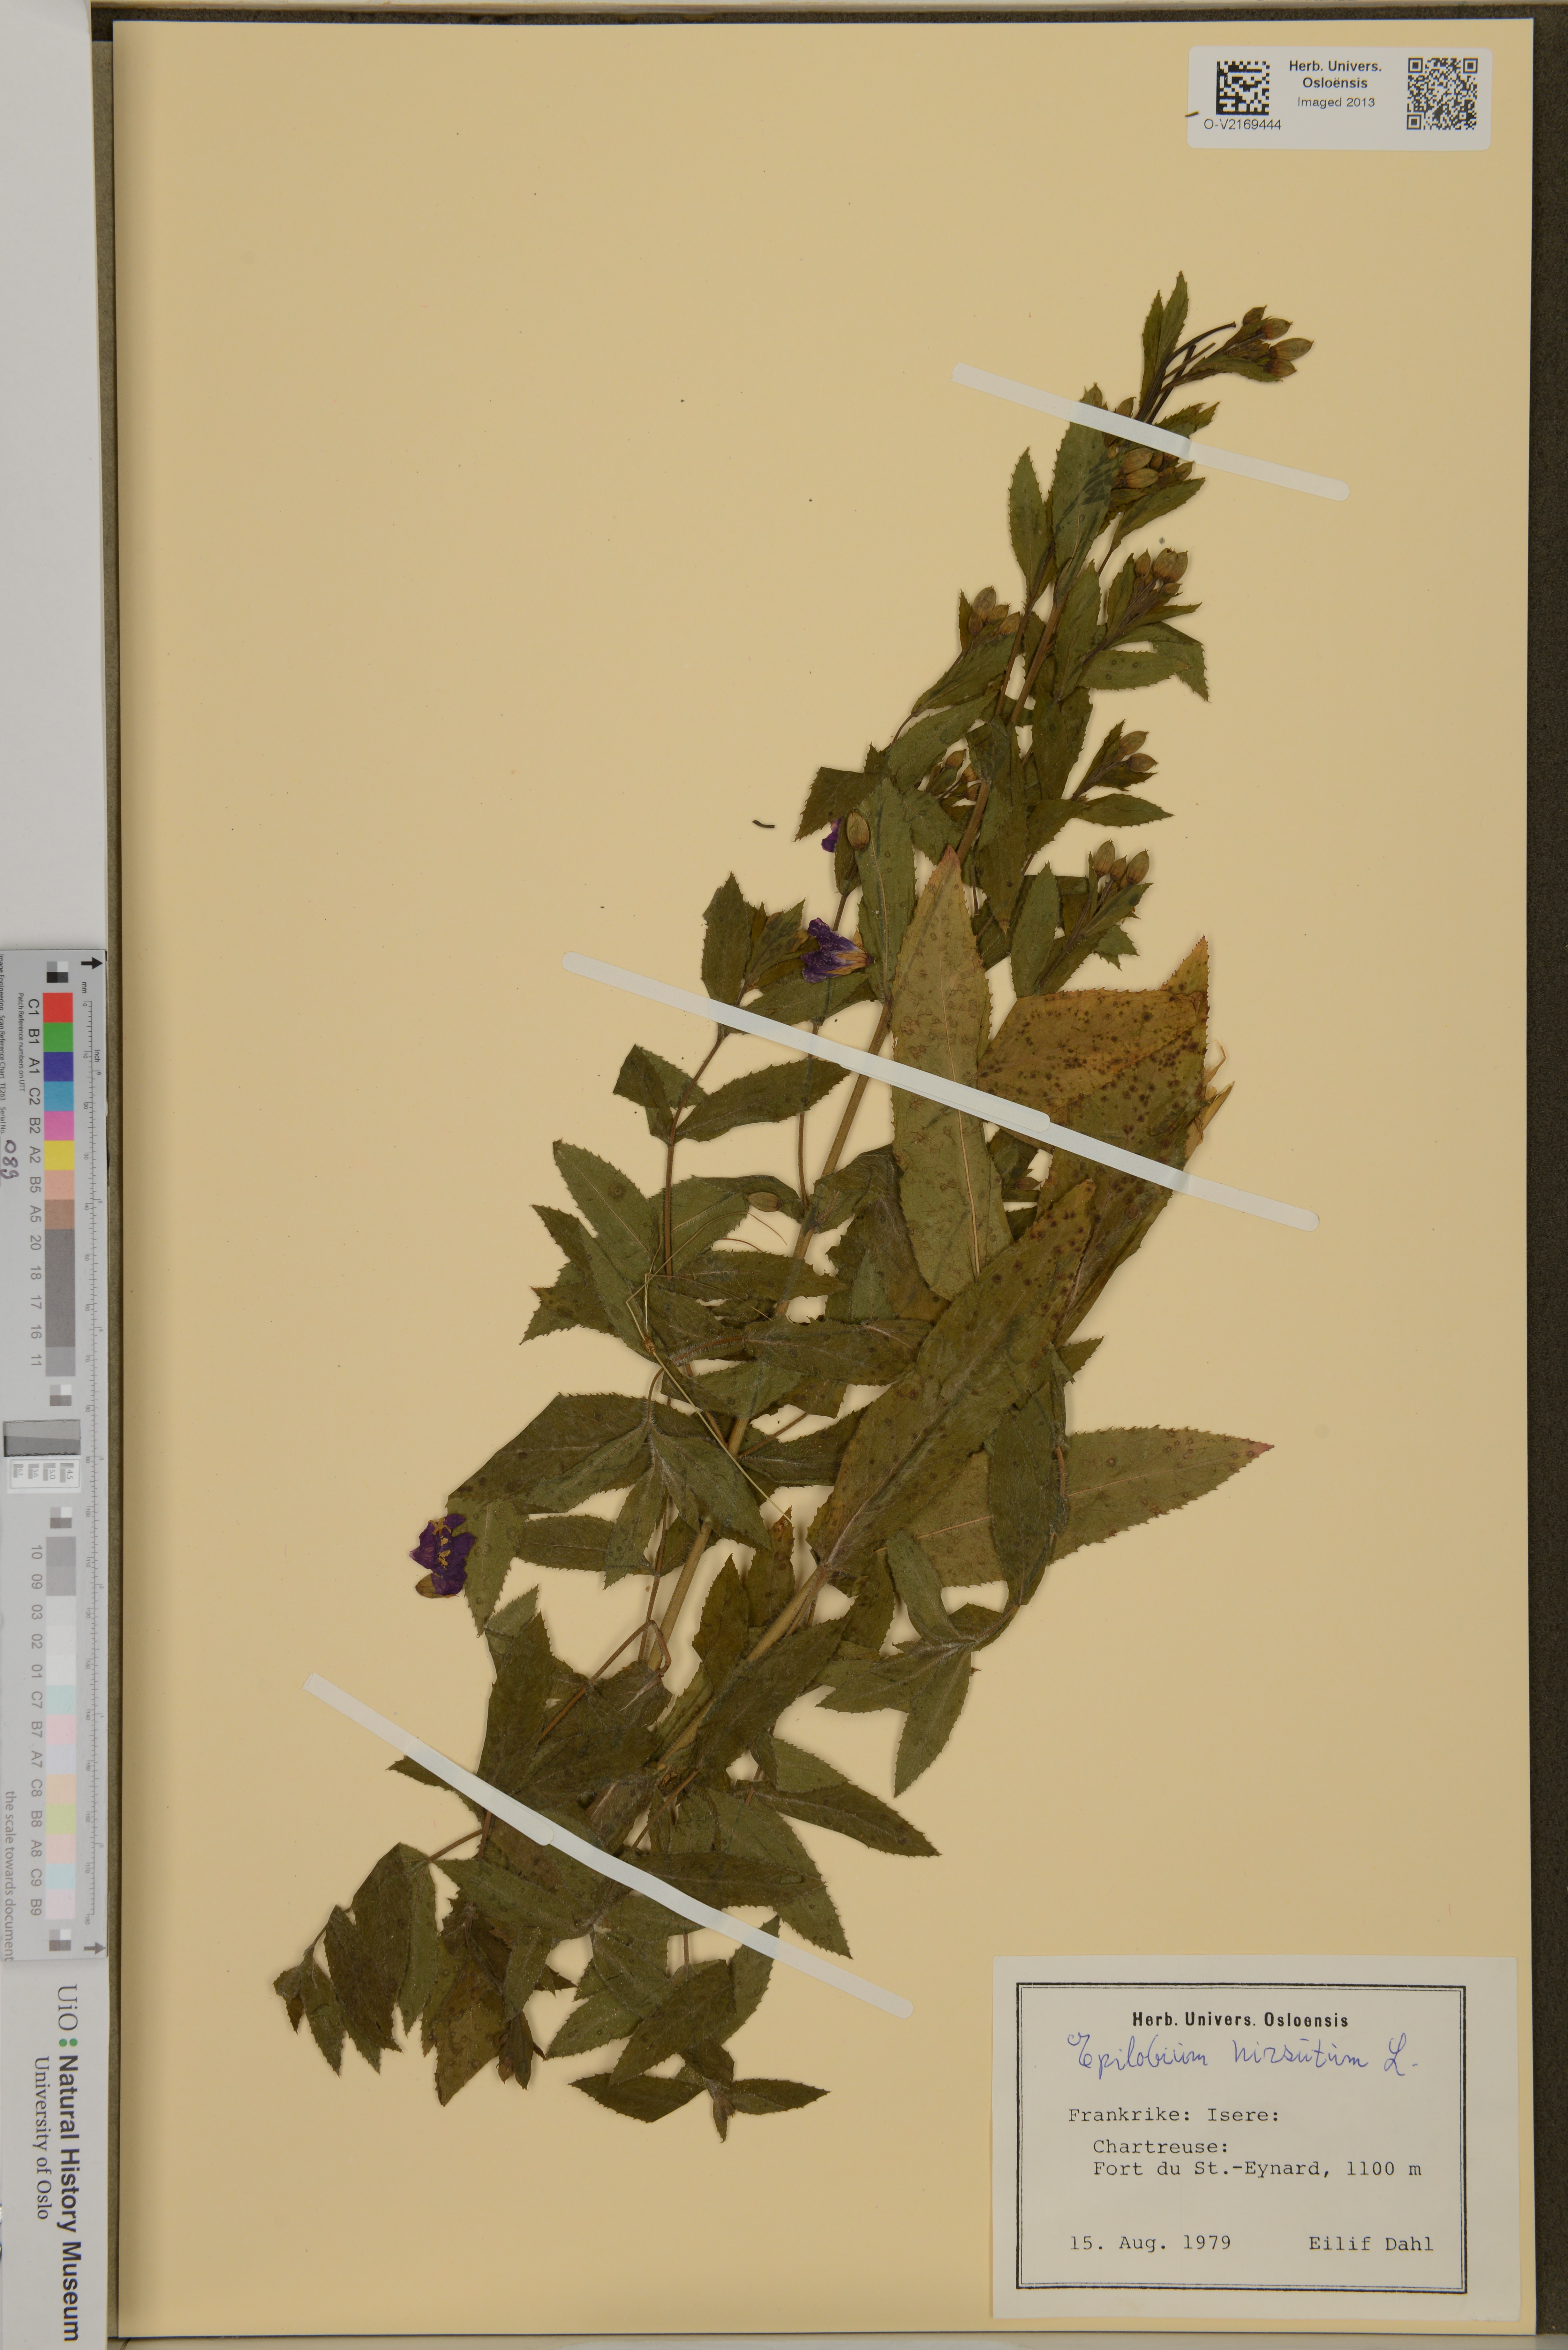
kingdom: Plantae
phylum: Tracheophyta
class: Magnoliopsida
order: Myrtales
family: Onagraceae
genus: Epilobium
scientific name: Epilobium hirsutum
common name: Great willowherb
